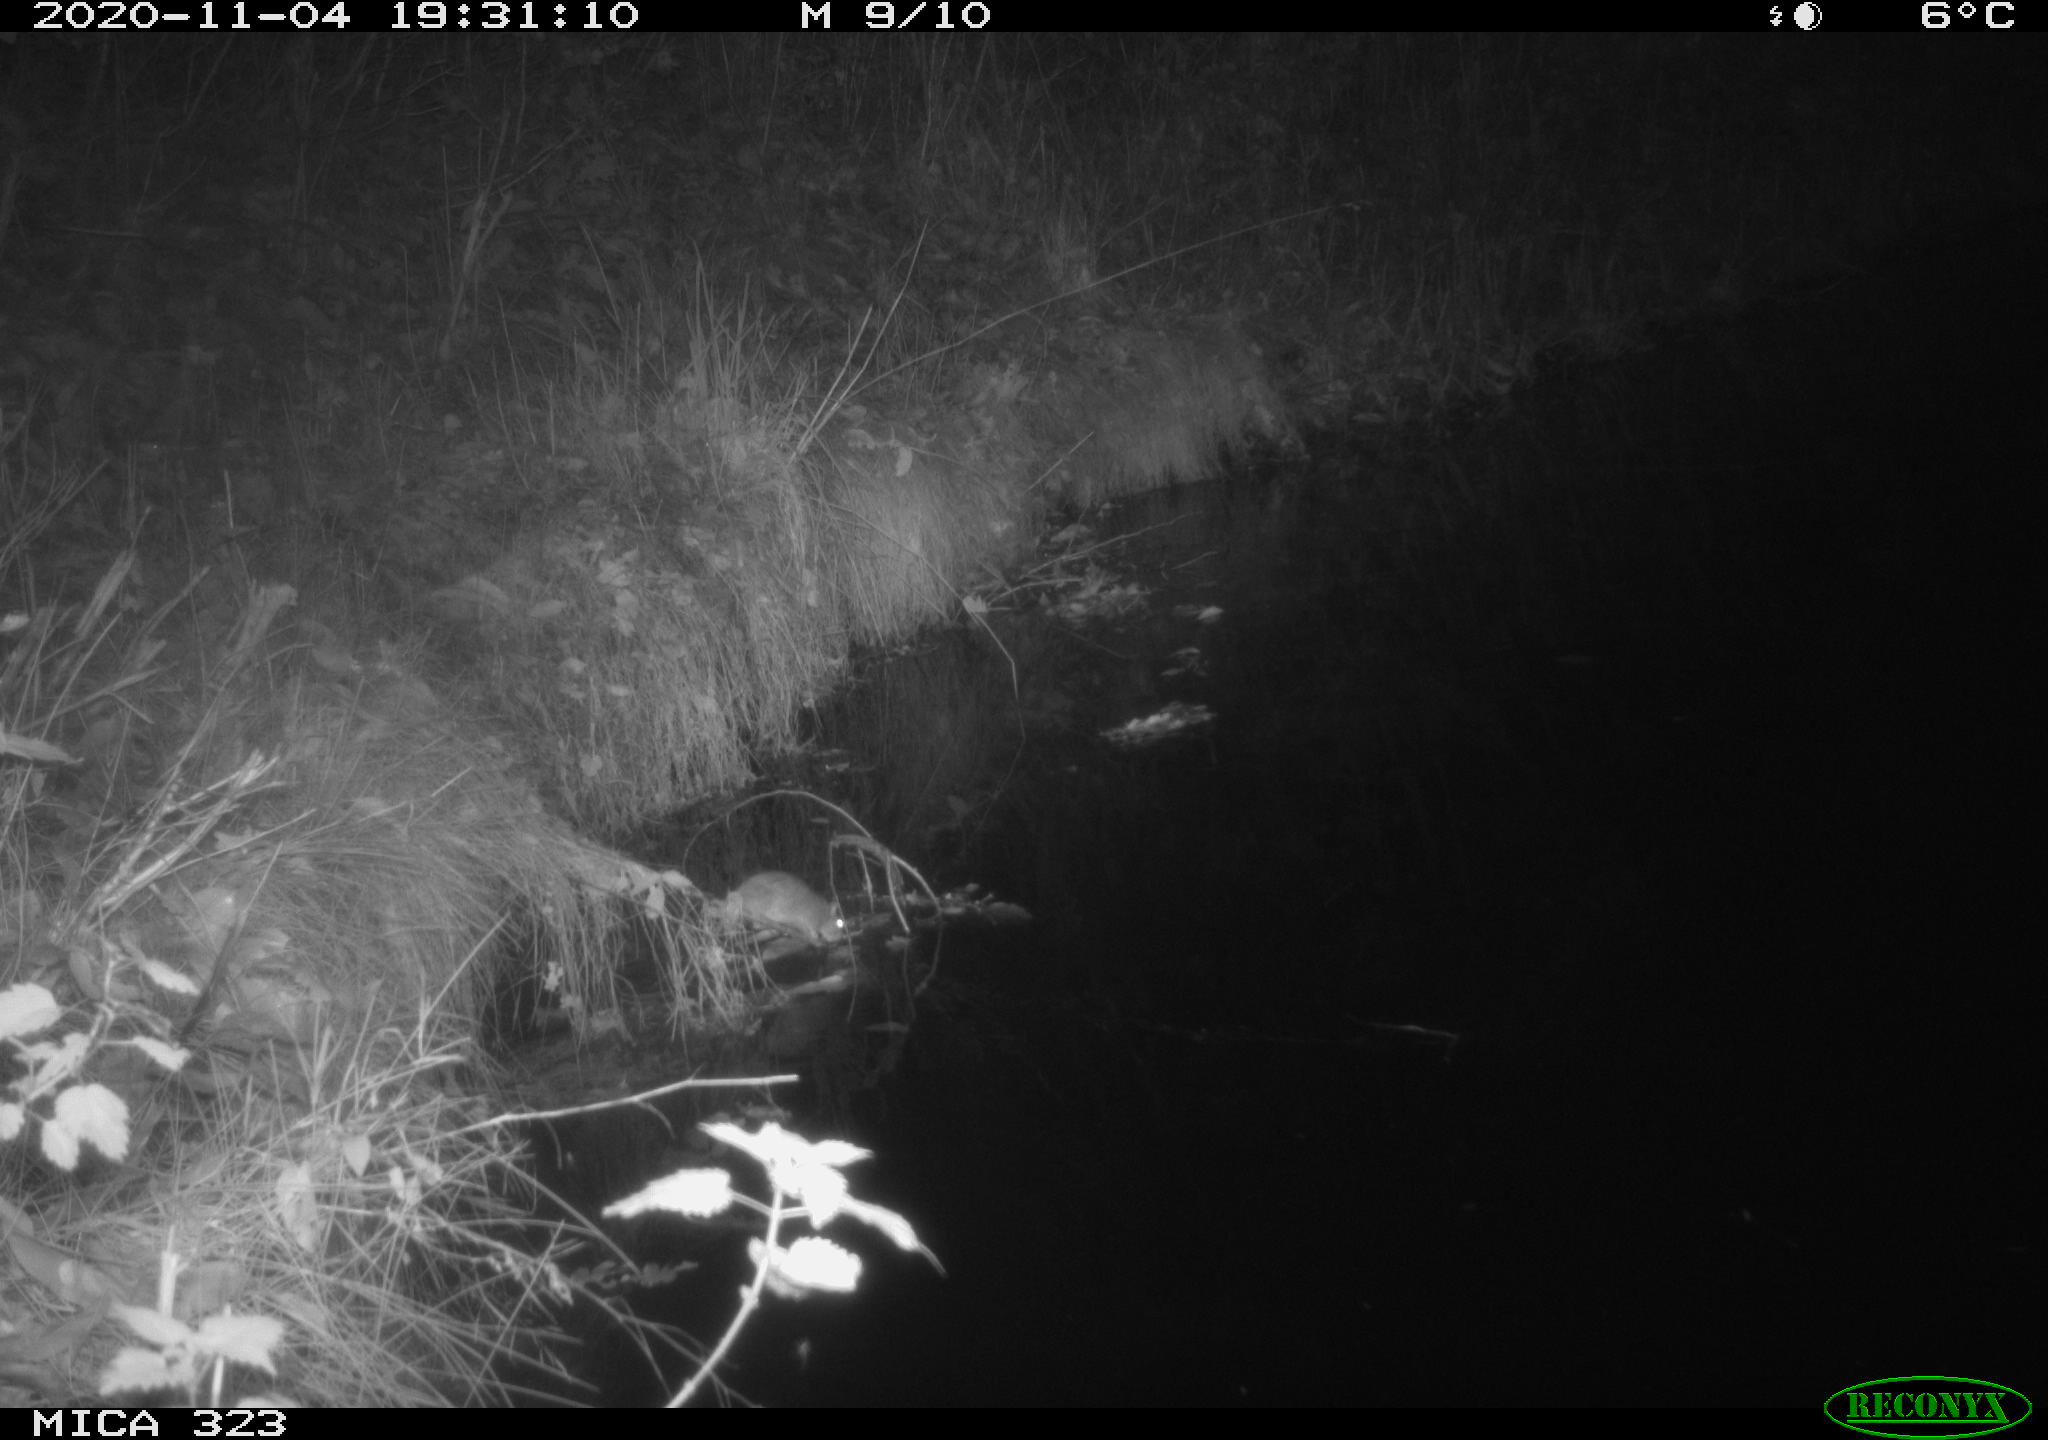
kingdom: Animalia
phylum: Chordata
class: Mammalia
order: Rodentia
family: Muridae
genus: Rattus
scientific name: Rattus norvegicus
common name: Brown rat
